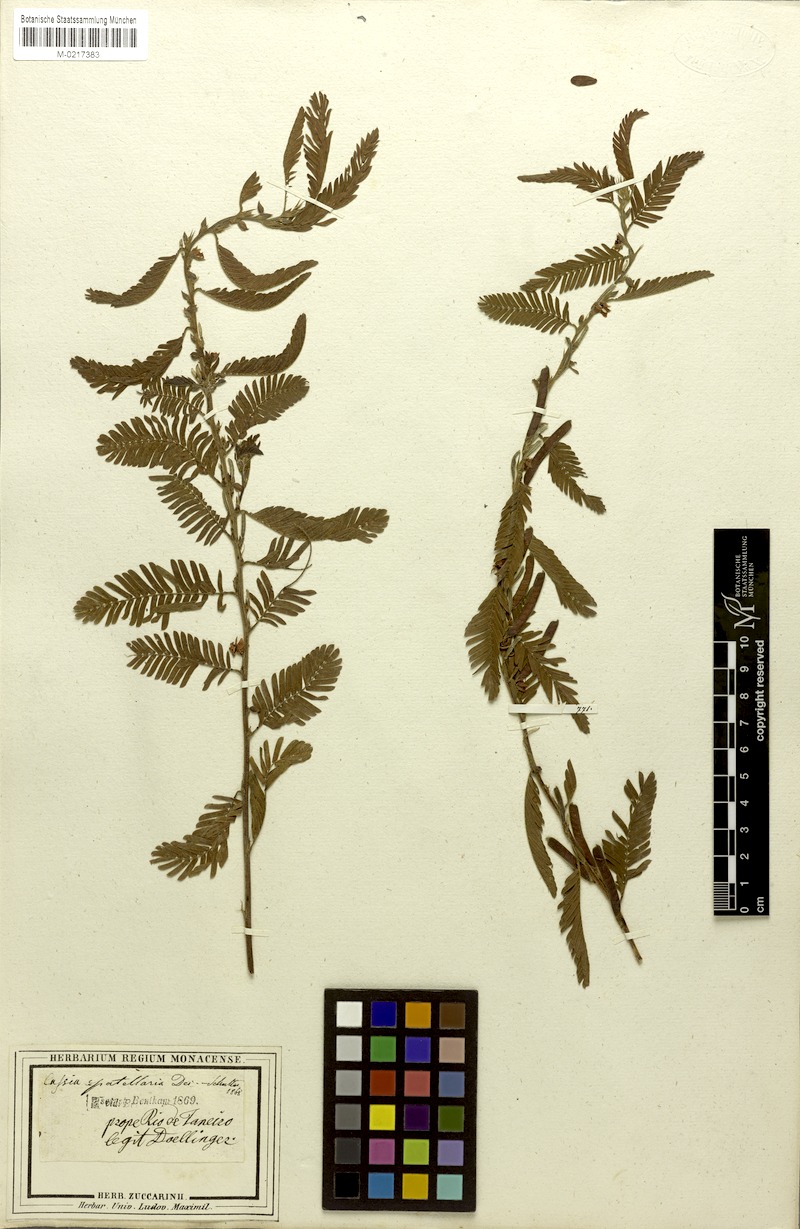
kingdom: Plantae
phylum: Tracheophyta
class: Magnoliopsida
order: Fabales
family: Fabaceae
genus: Chamaecrista
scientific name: Chamaecrista nictitans
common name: Sensitive cassia
